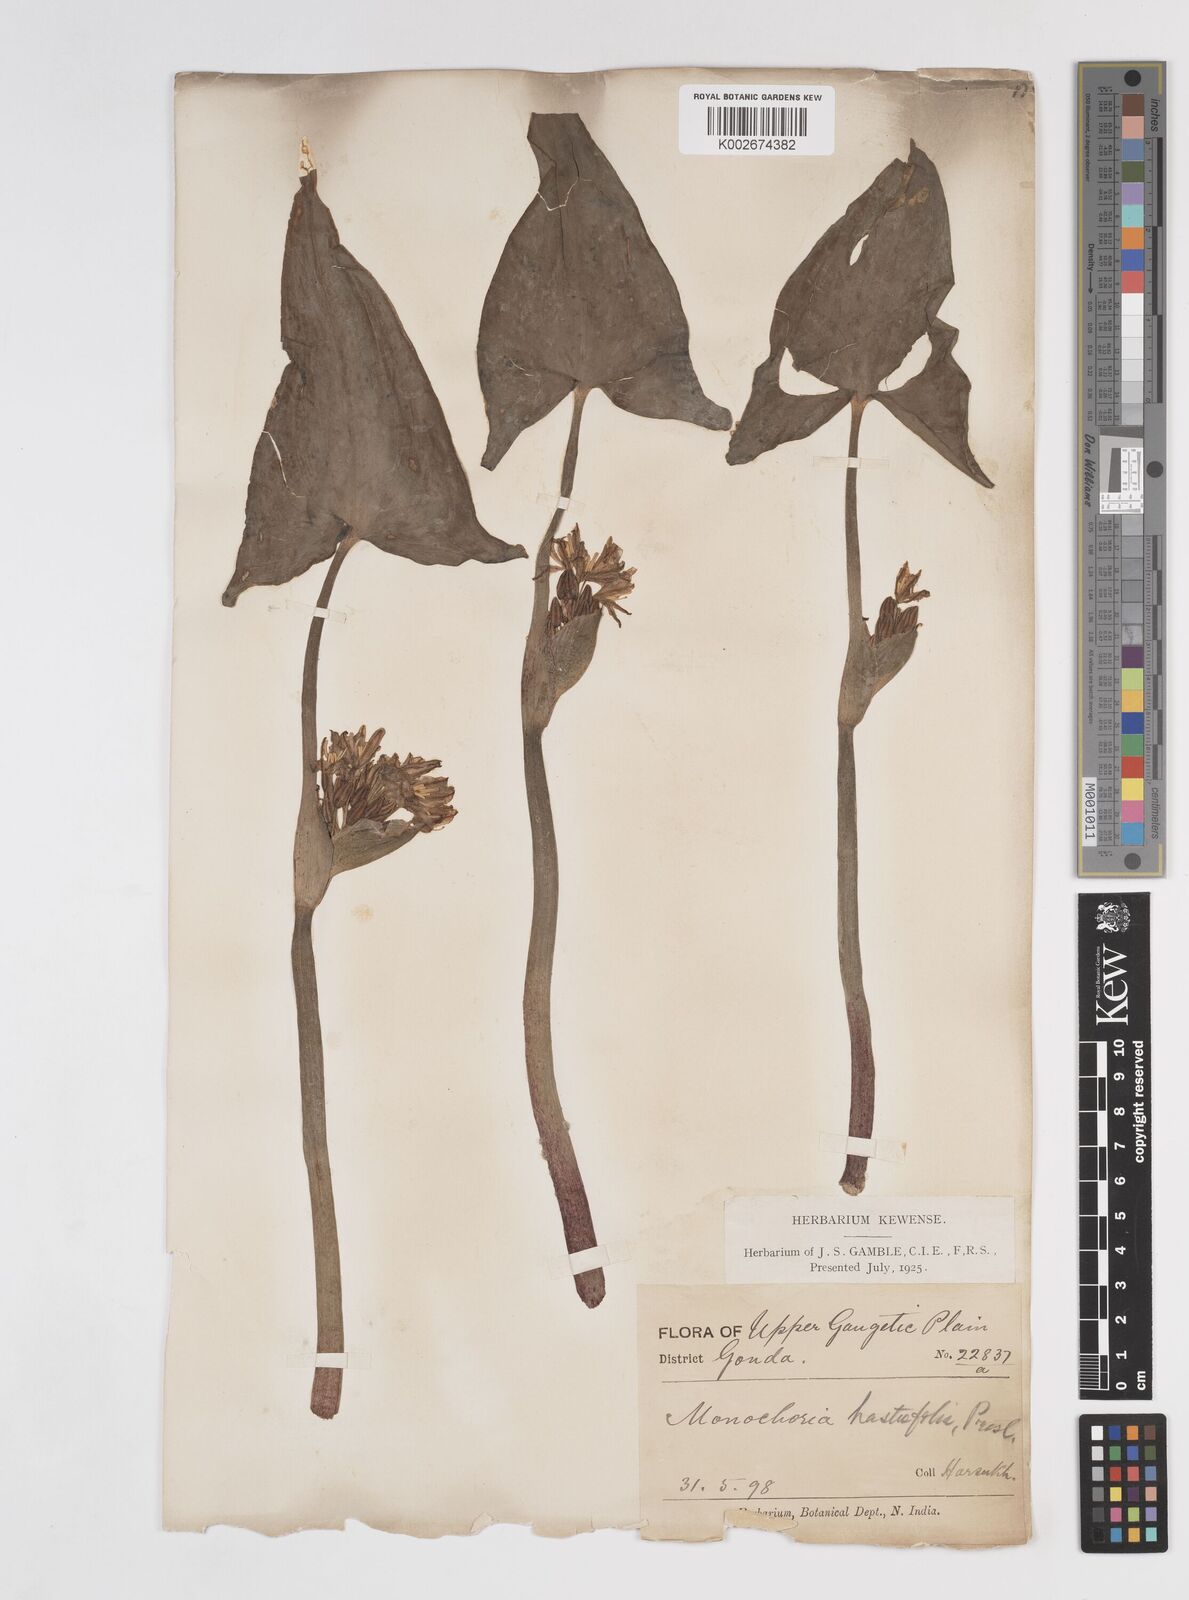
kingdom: Plantae
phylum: Tracheophyta
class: Liliopsida
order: Commelinales
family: Pontederiaceae
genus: Pontederia
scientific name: Pontederia hastata
